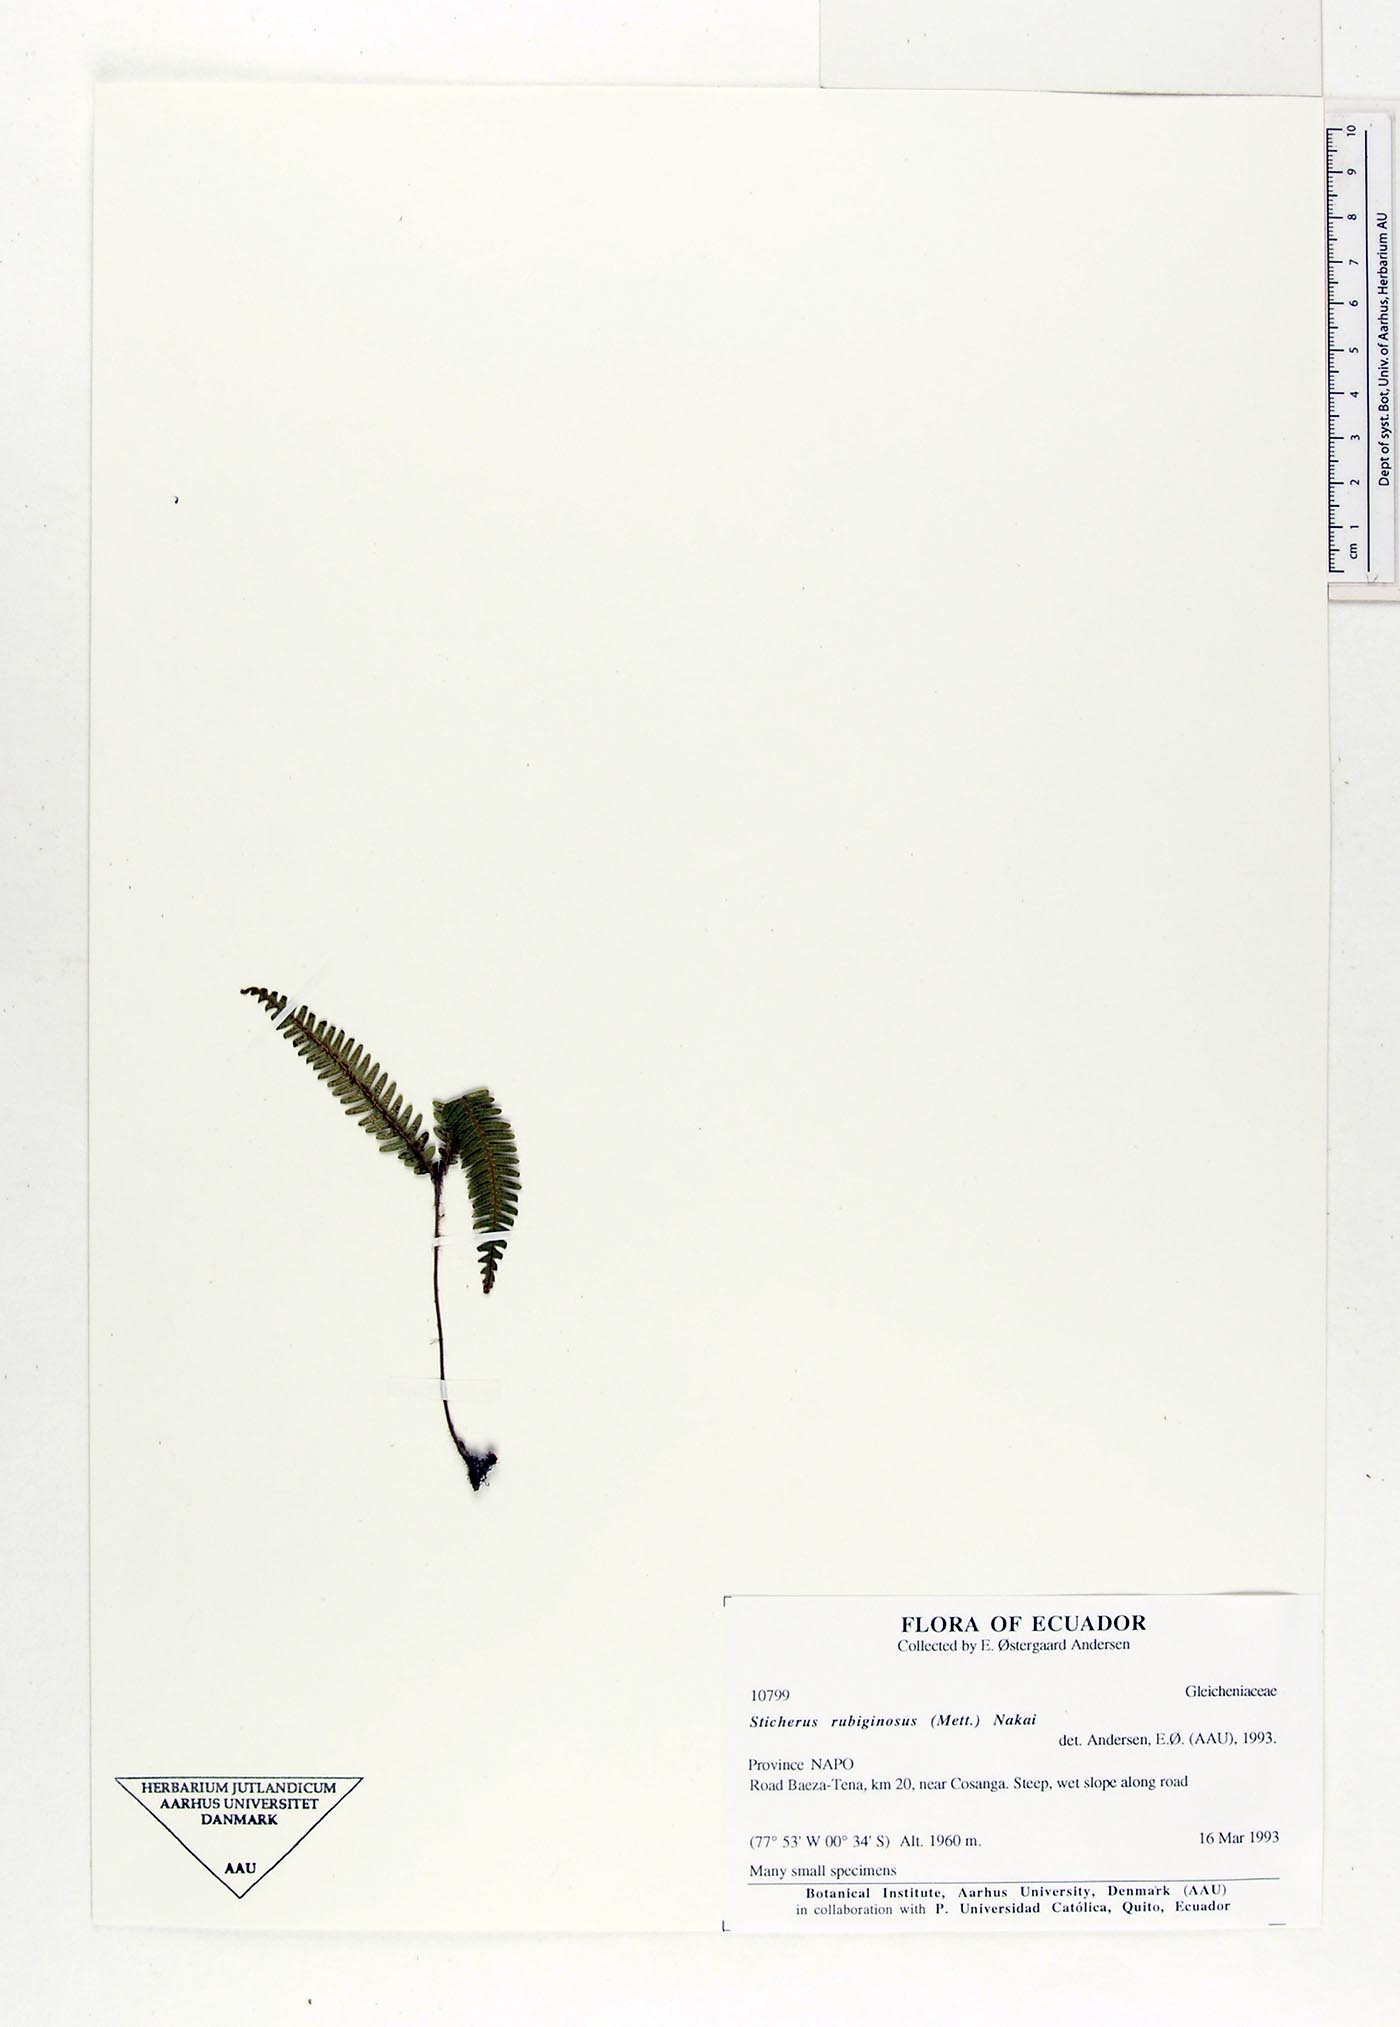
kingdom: Plantae
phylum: Tracheophyta
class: Polypodiopsida
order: Gleicheniales
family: Gleicheniaceae
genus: Sticherus
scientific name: Sticherus rubiginosus
